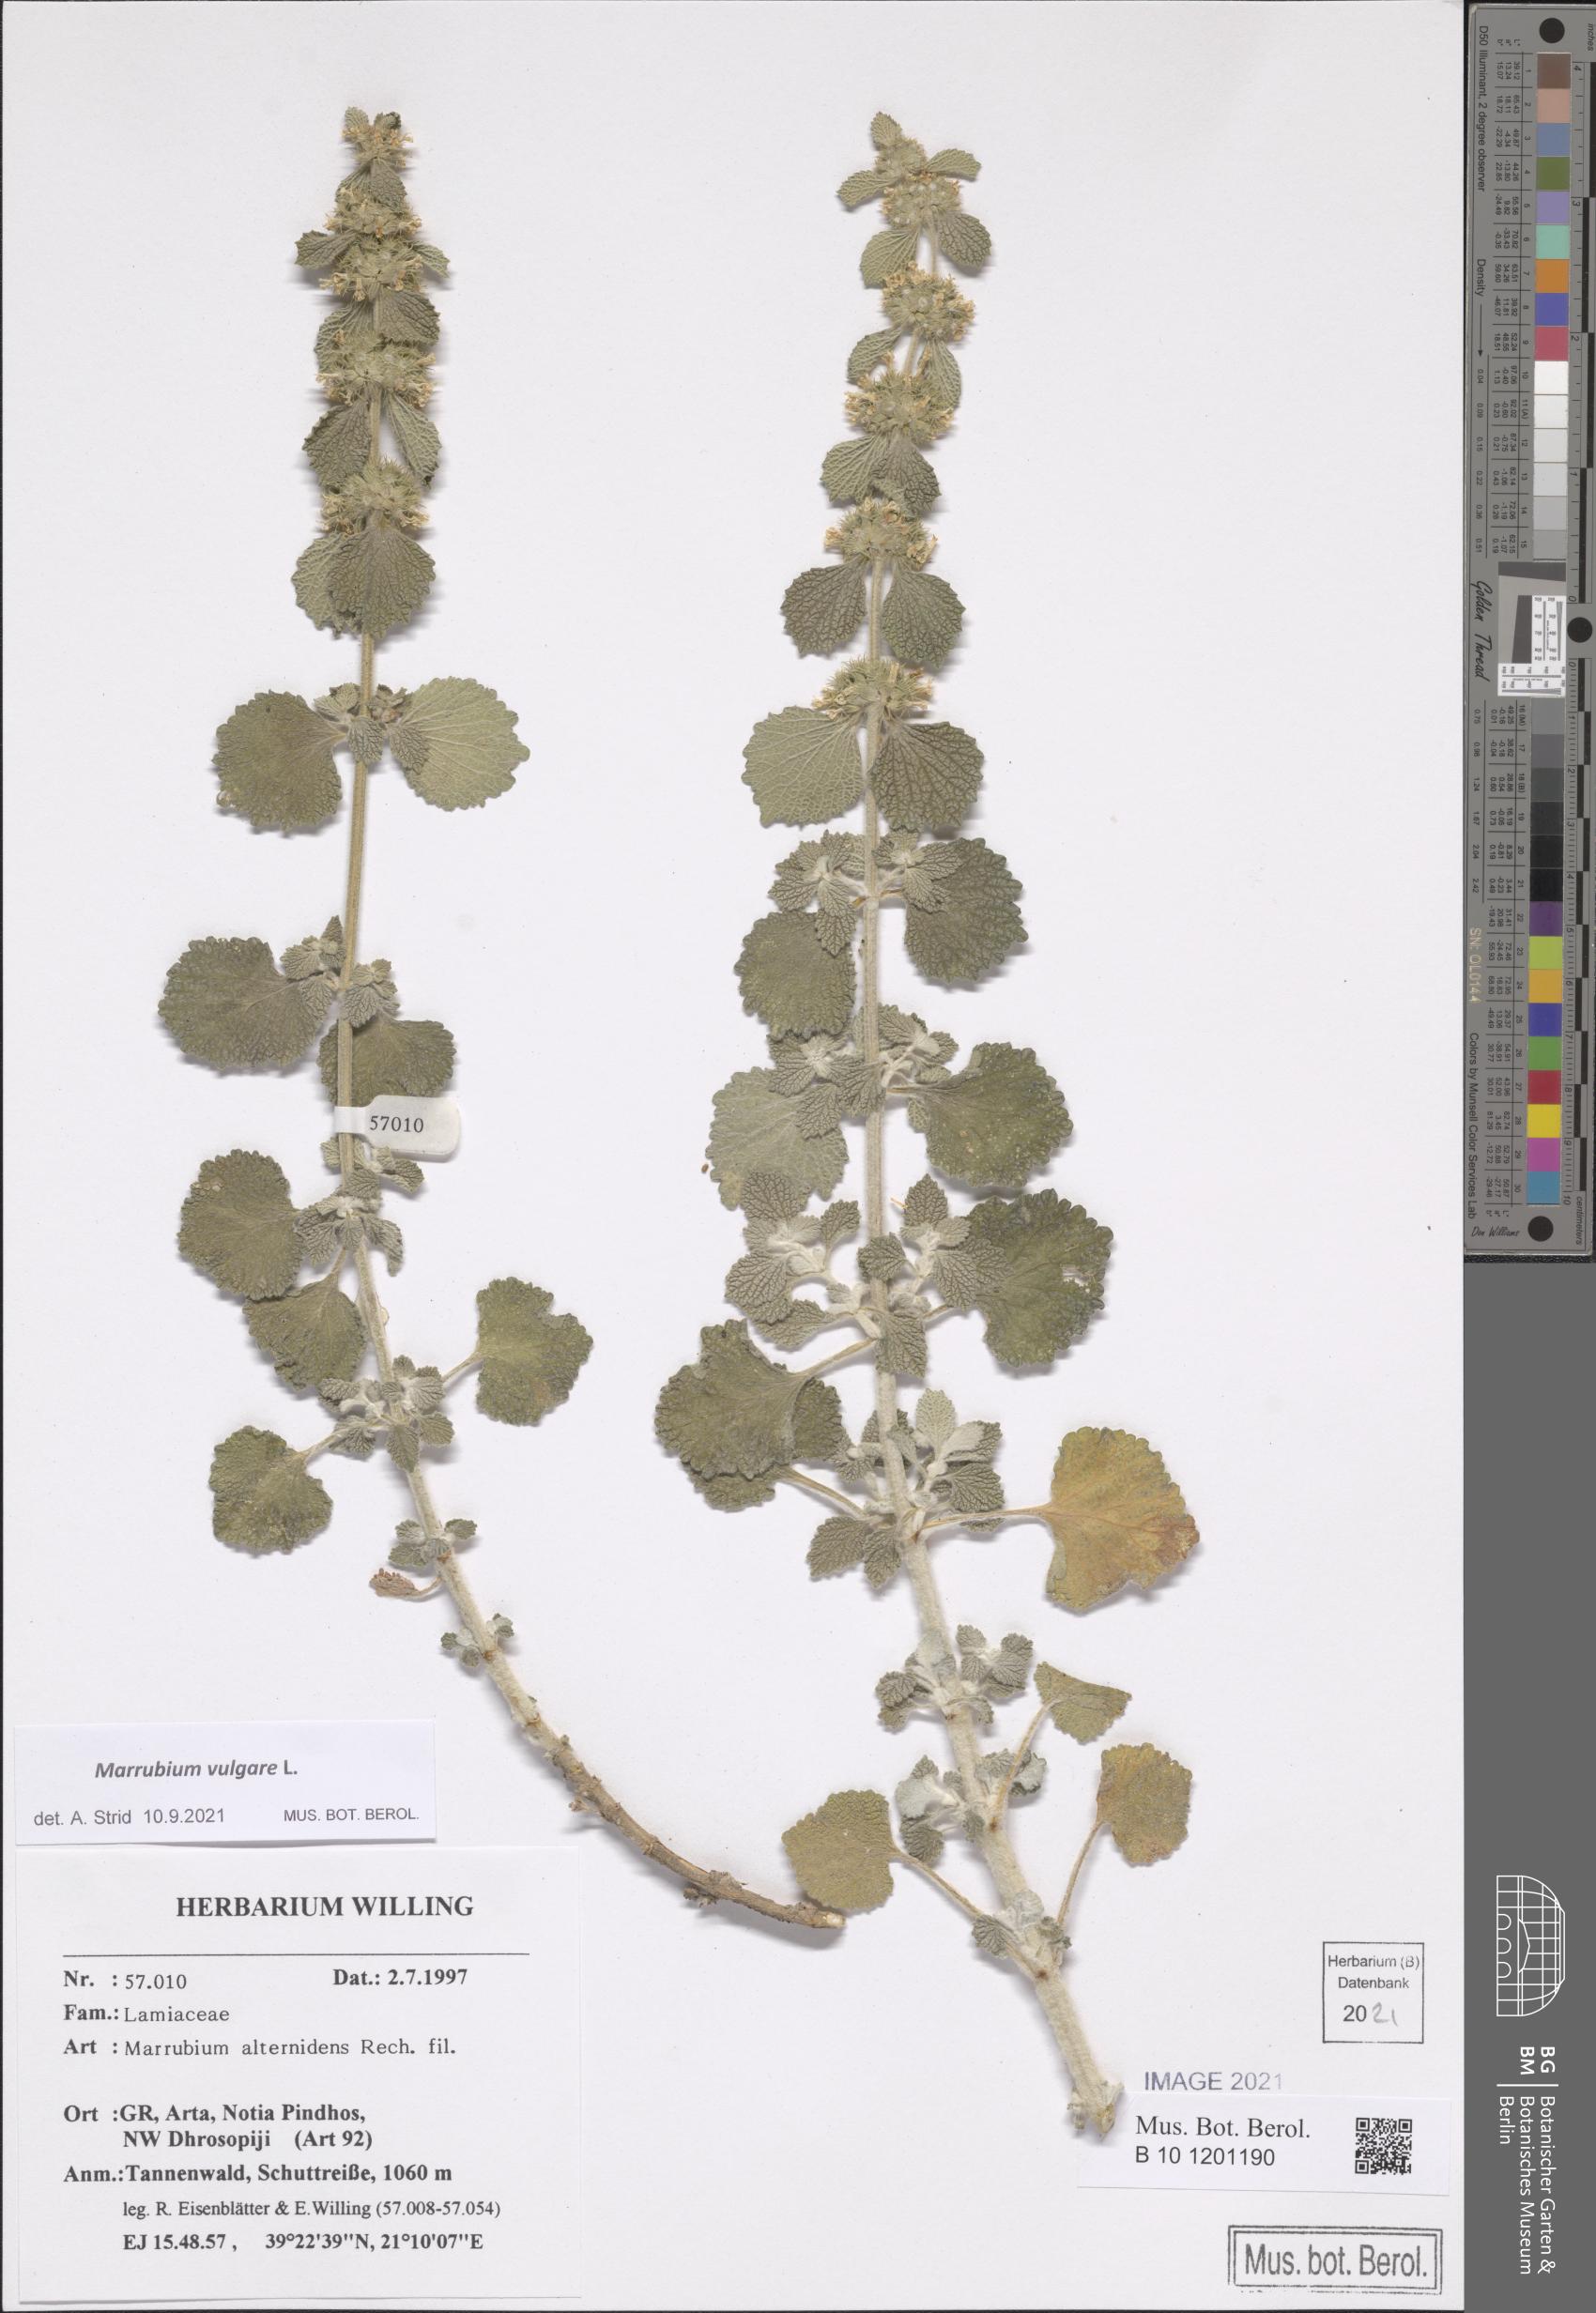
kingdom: Plantae
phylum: Tracheophyta
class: Magnoliopsida
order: Lamiales
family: Lamiaceae
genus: Marrubium
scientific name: Marrubium vulgare
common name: Horehound
